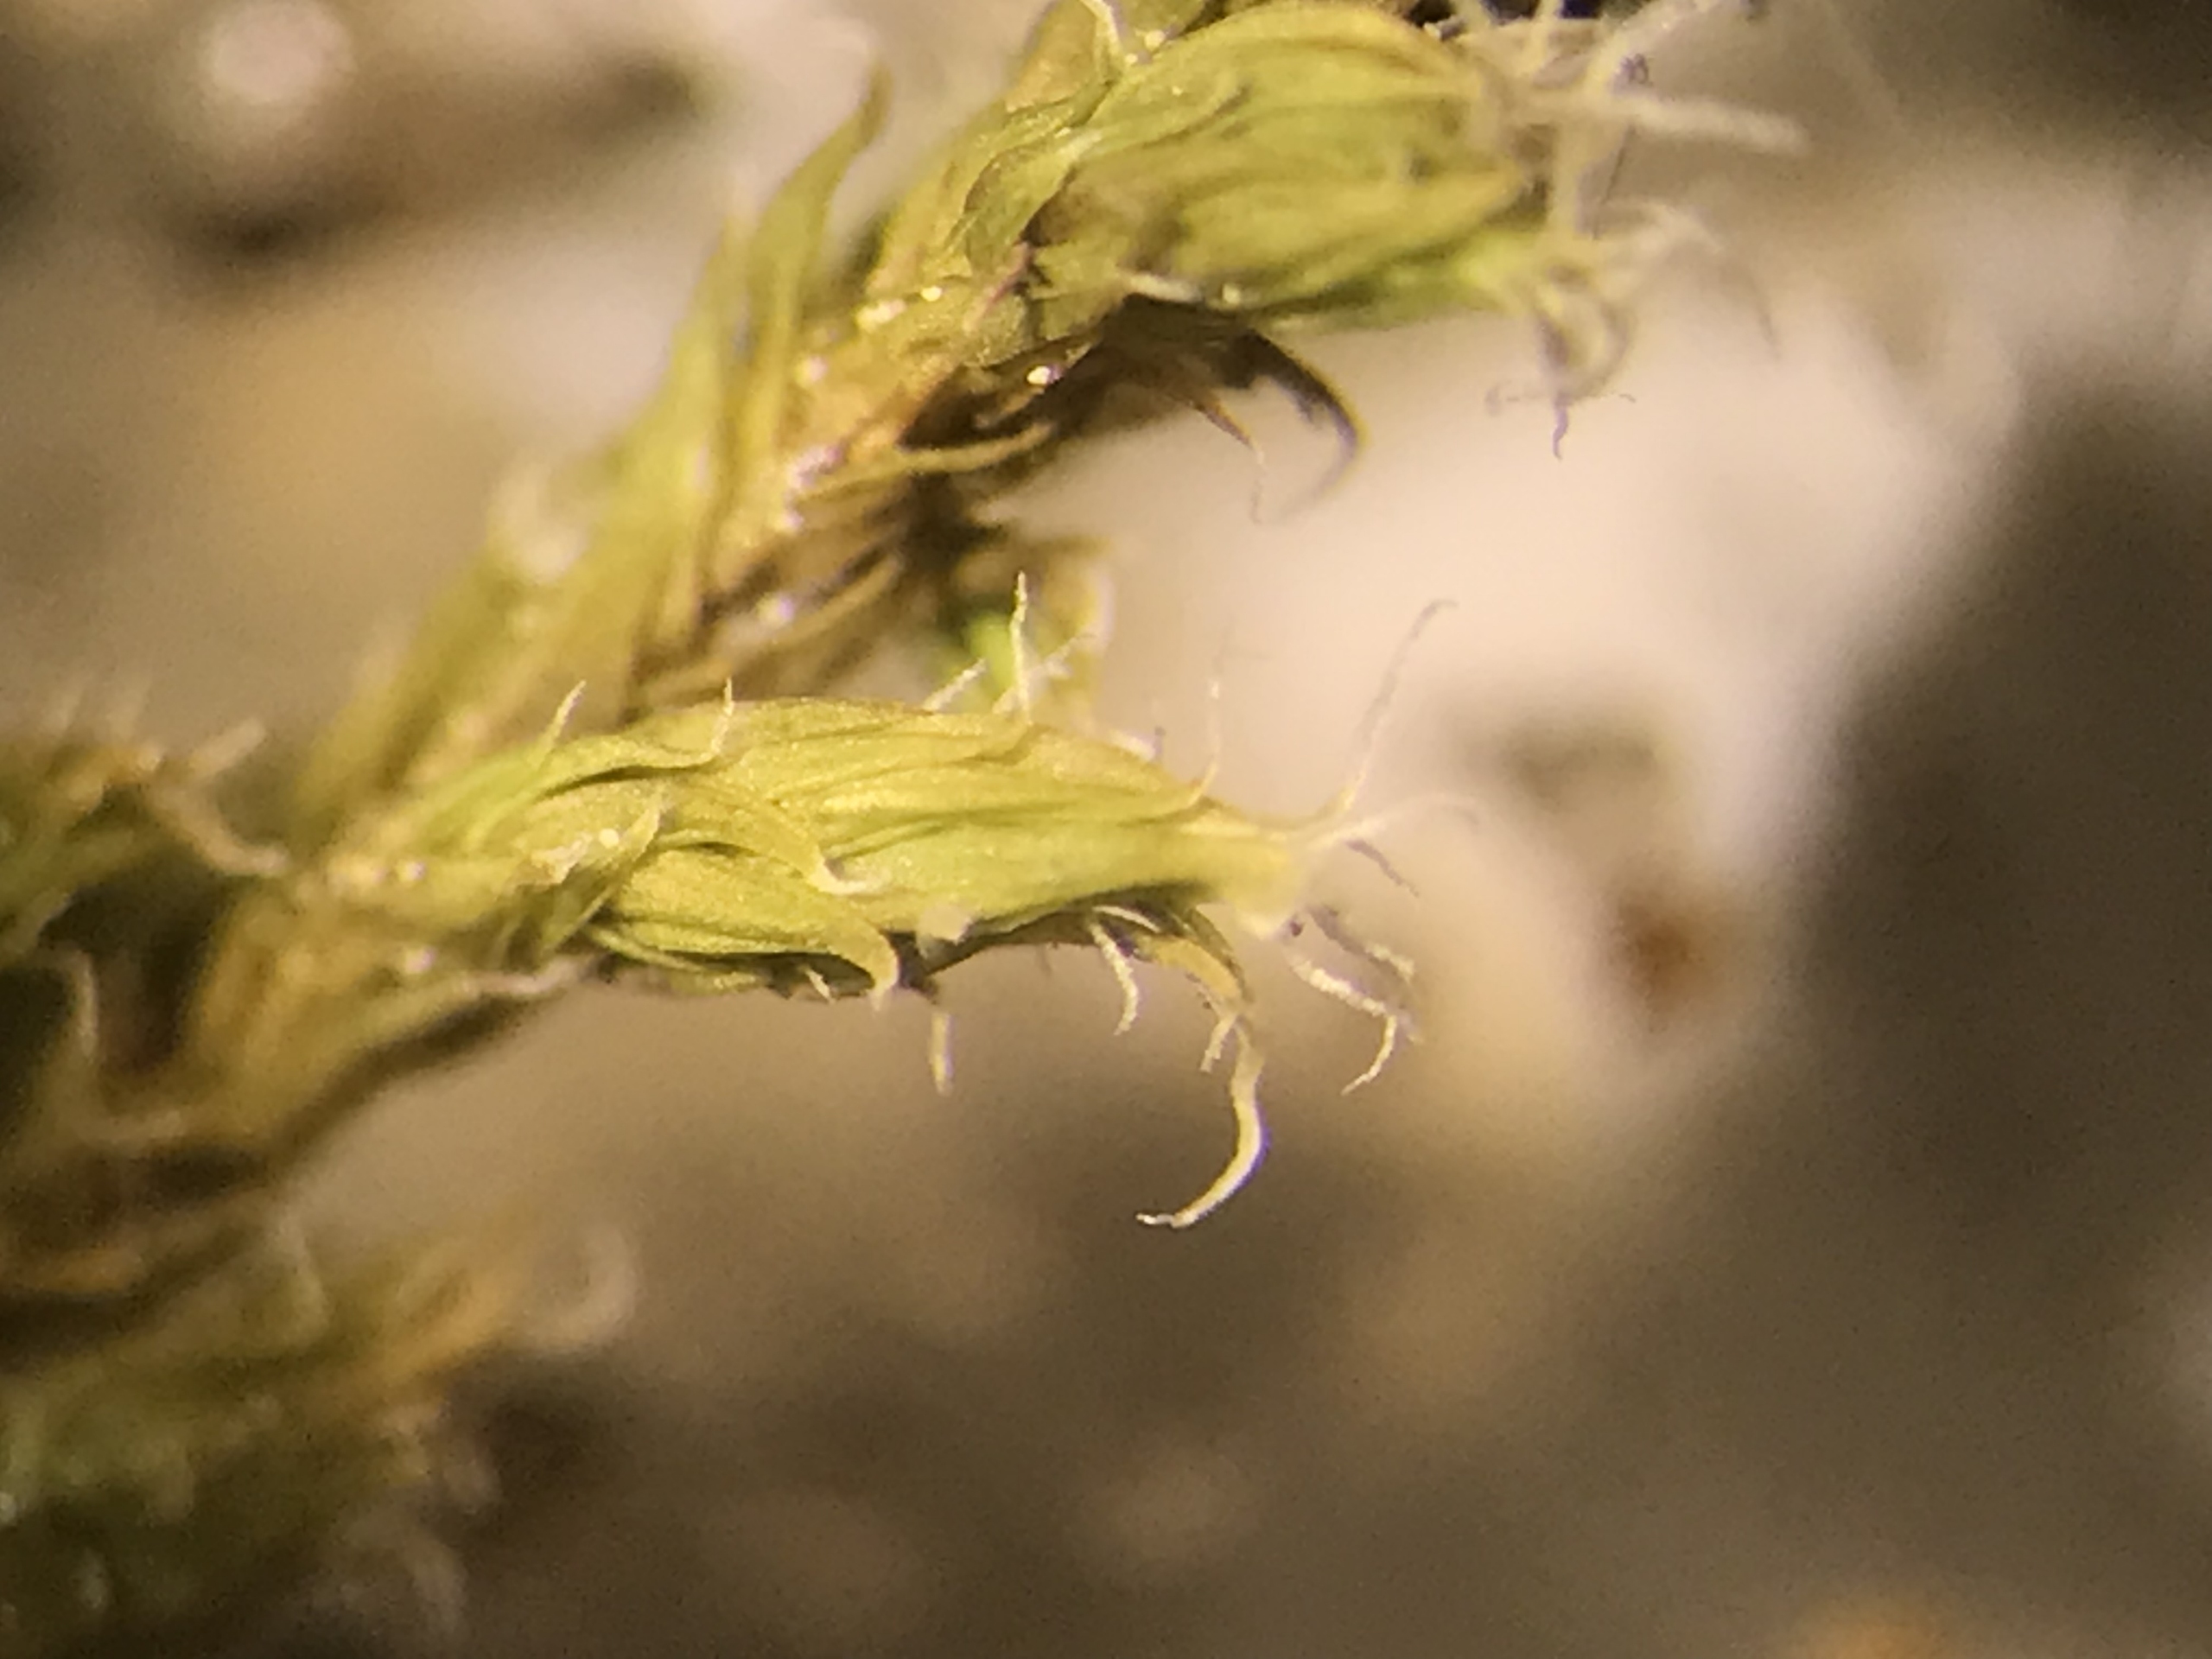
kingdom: Plantae
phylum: Bryophyta
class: Bryopsida
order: Grimmiales
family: Grimmiaceae
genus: Niphotrichum
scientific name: Niphotrichum elongatum
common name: Lang børstemos
